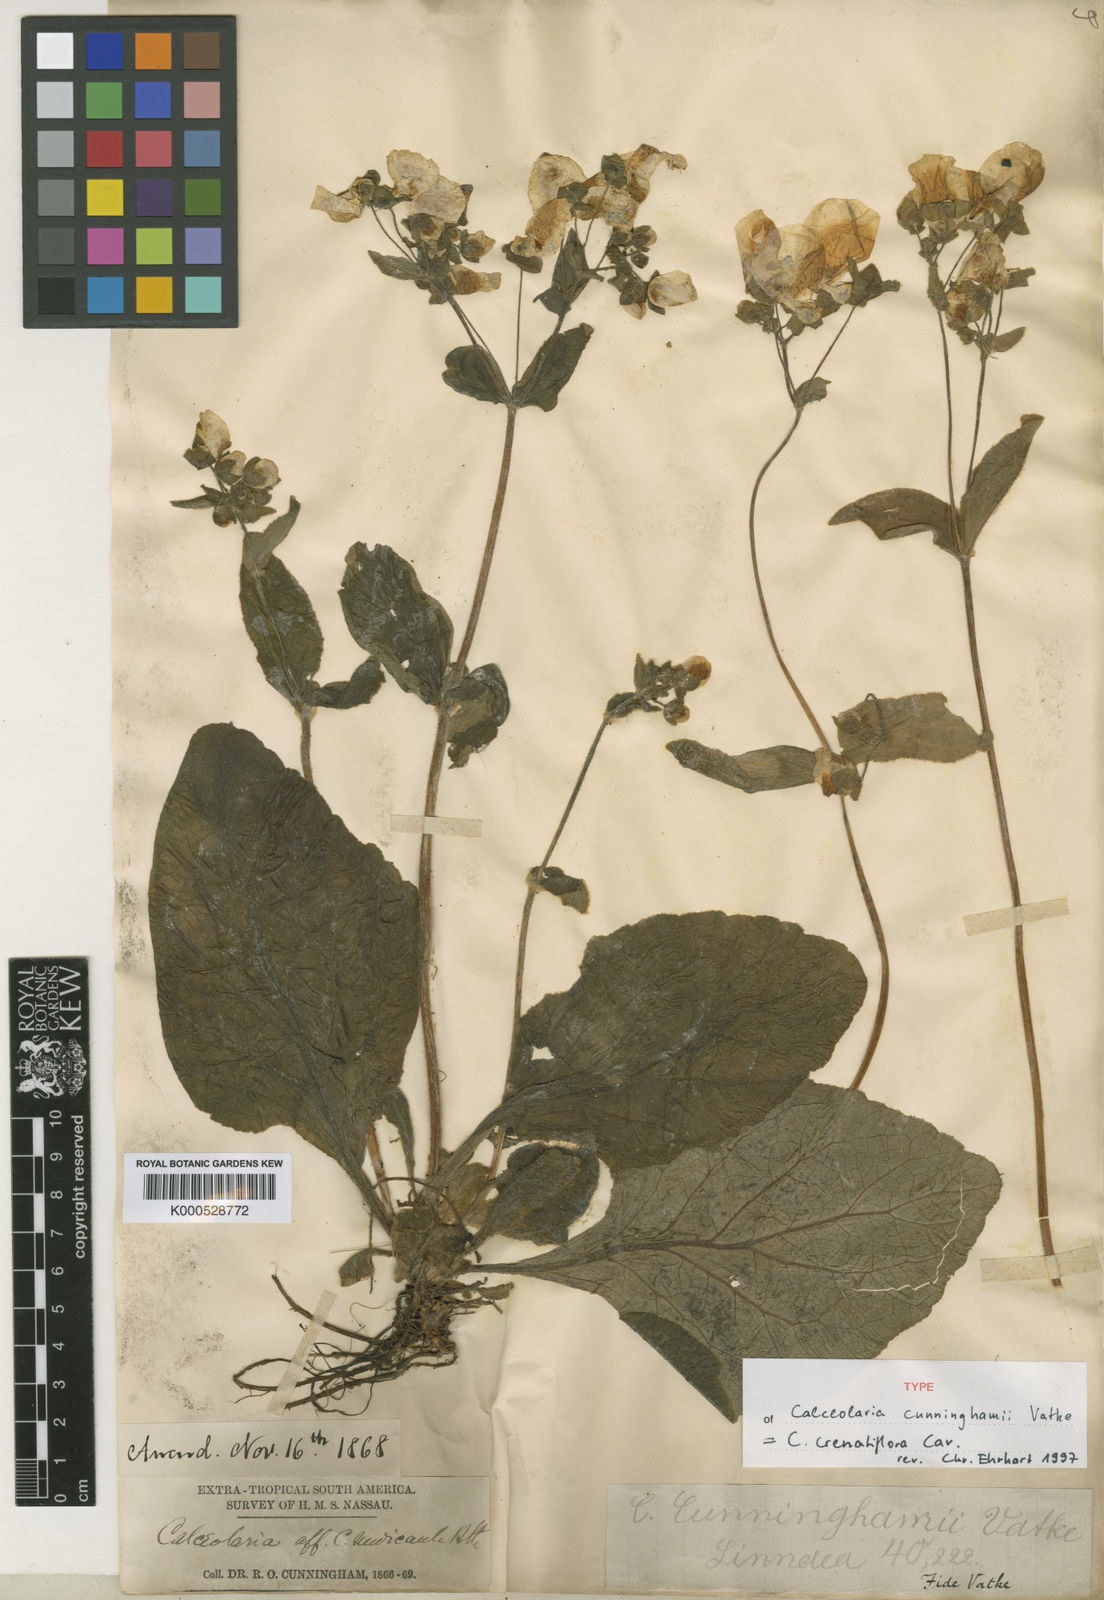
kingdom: Plantae
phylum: Tracheophyta
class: Magnoliopsida
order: Lamiales
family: Calceolariaceae
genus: Calceolaria
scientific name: Calceolaria crenatiflora
